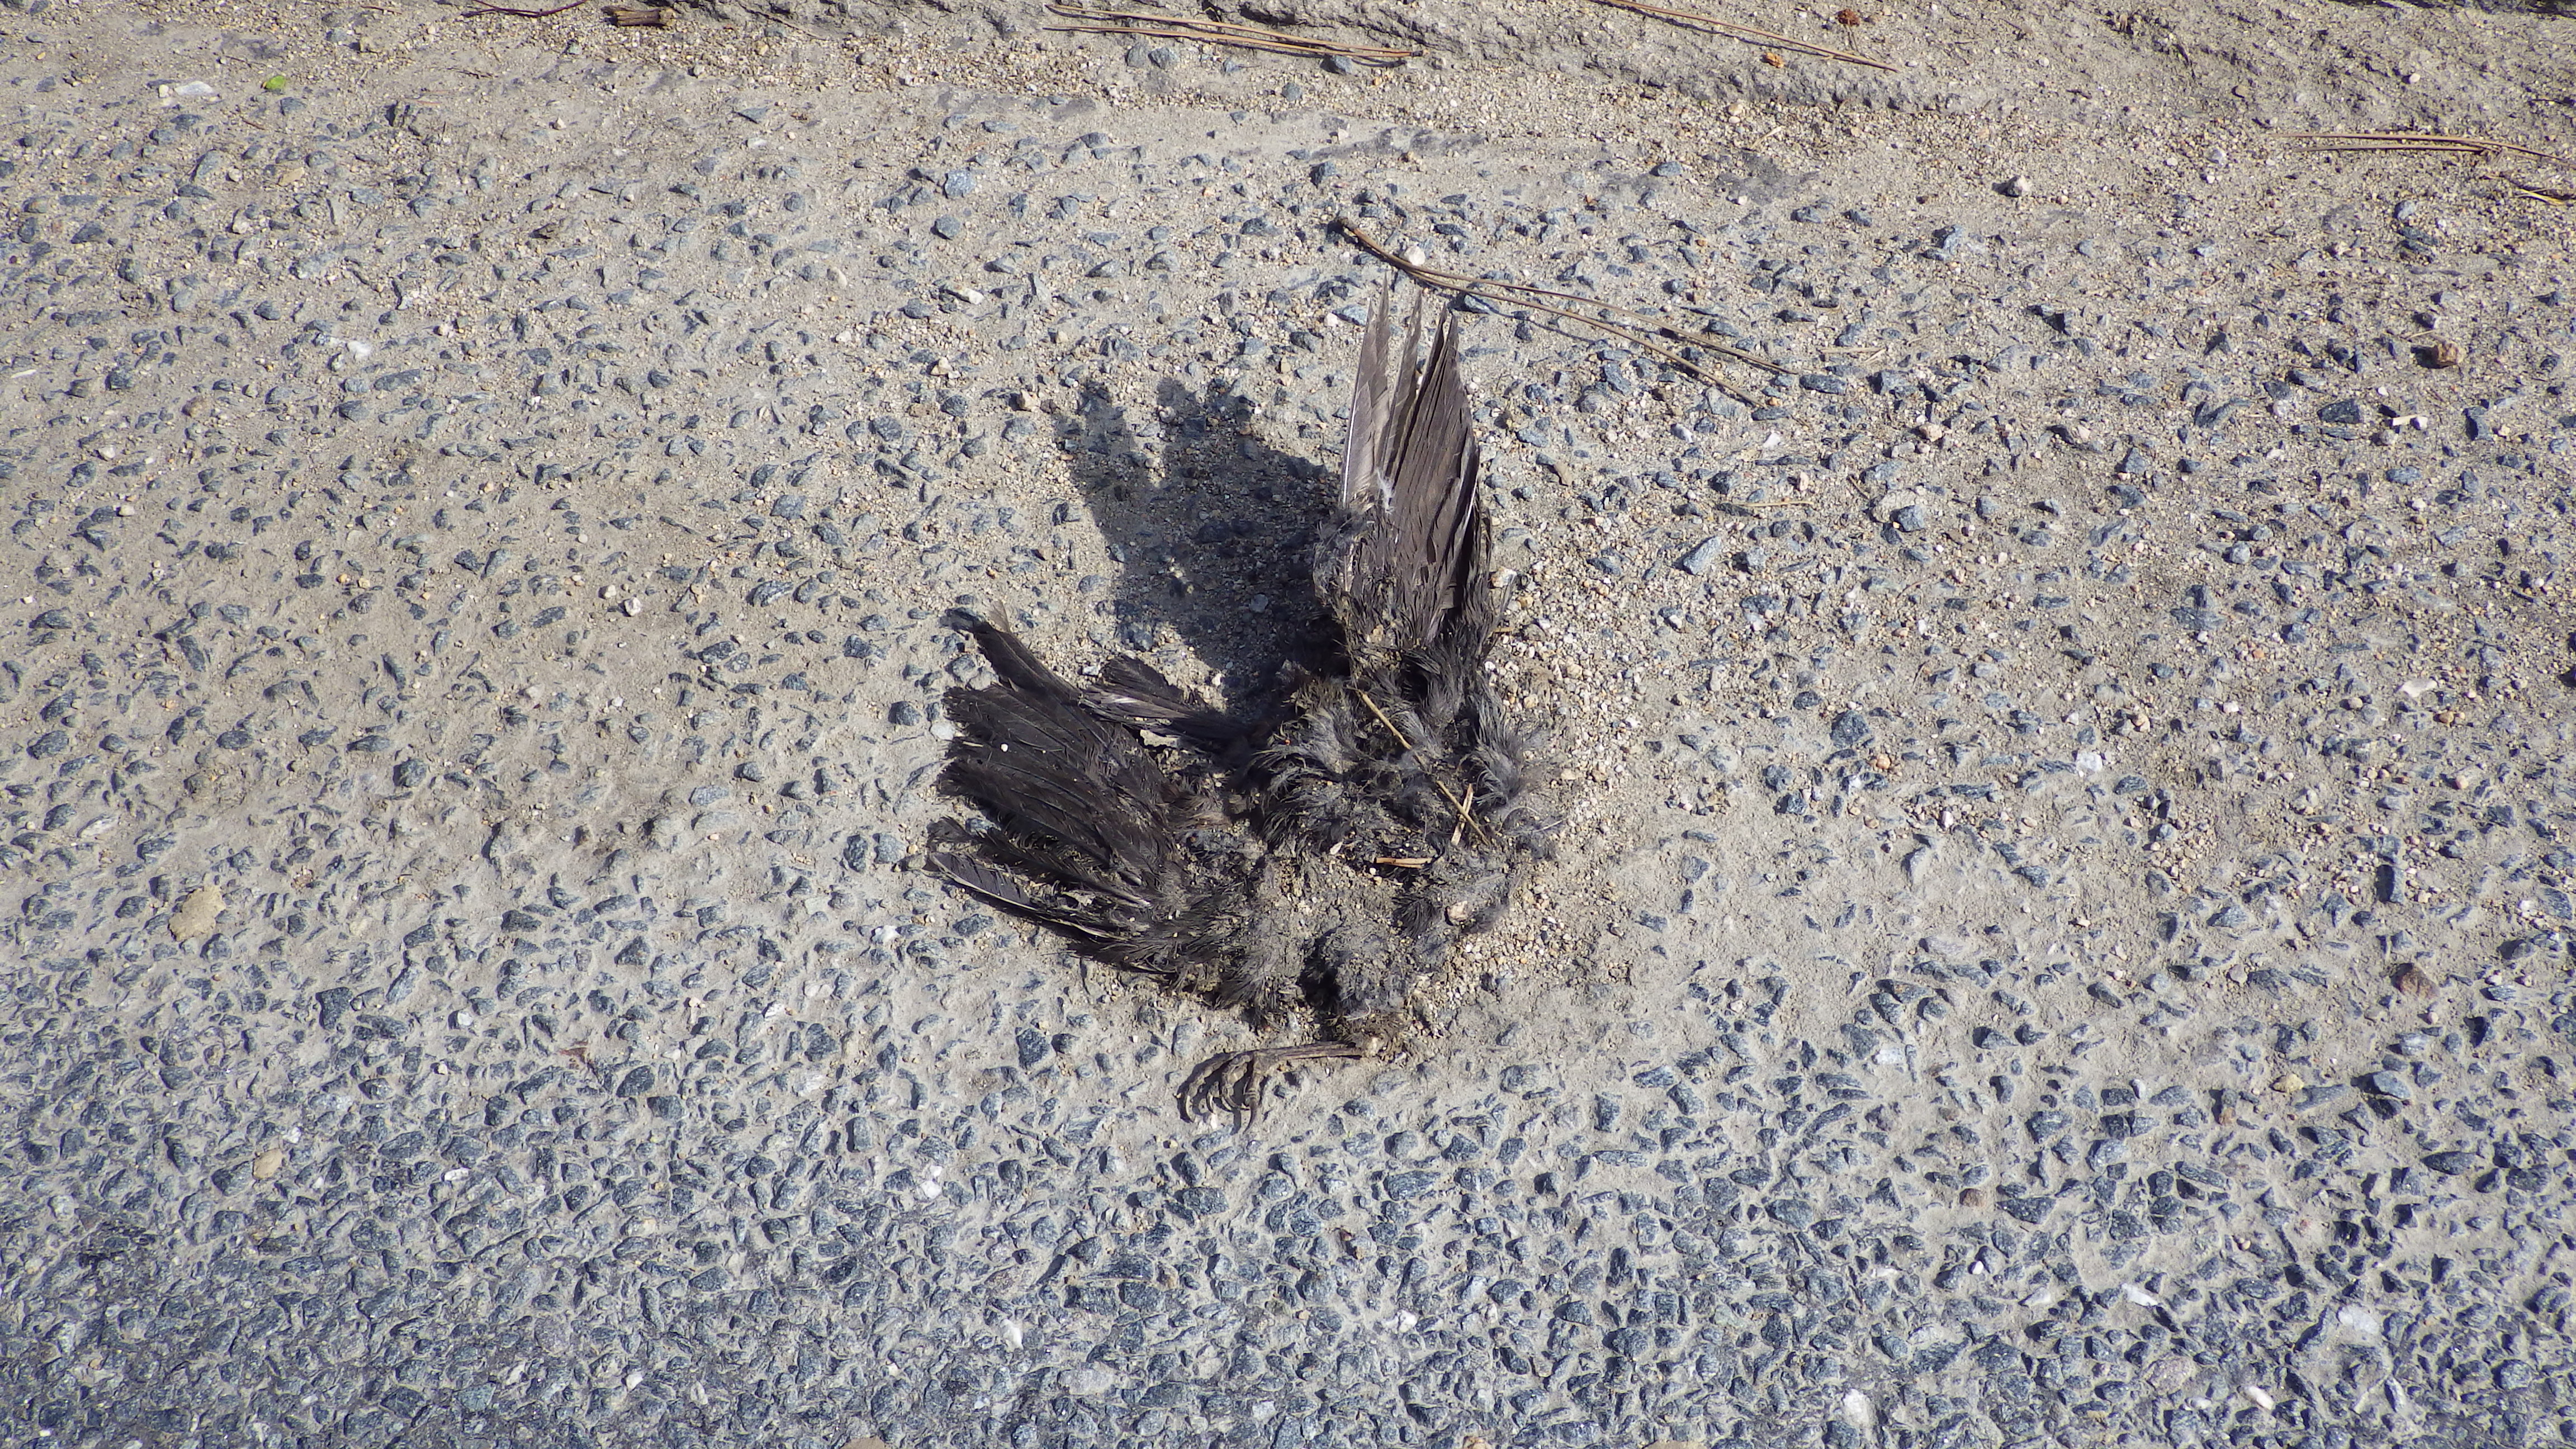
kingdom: Animalia
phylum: Chordata
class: Aves
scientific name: Aves
